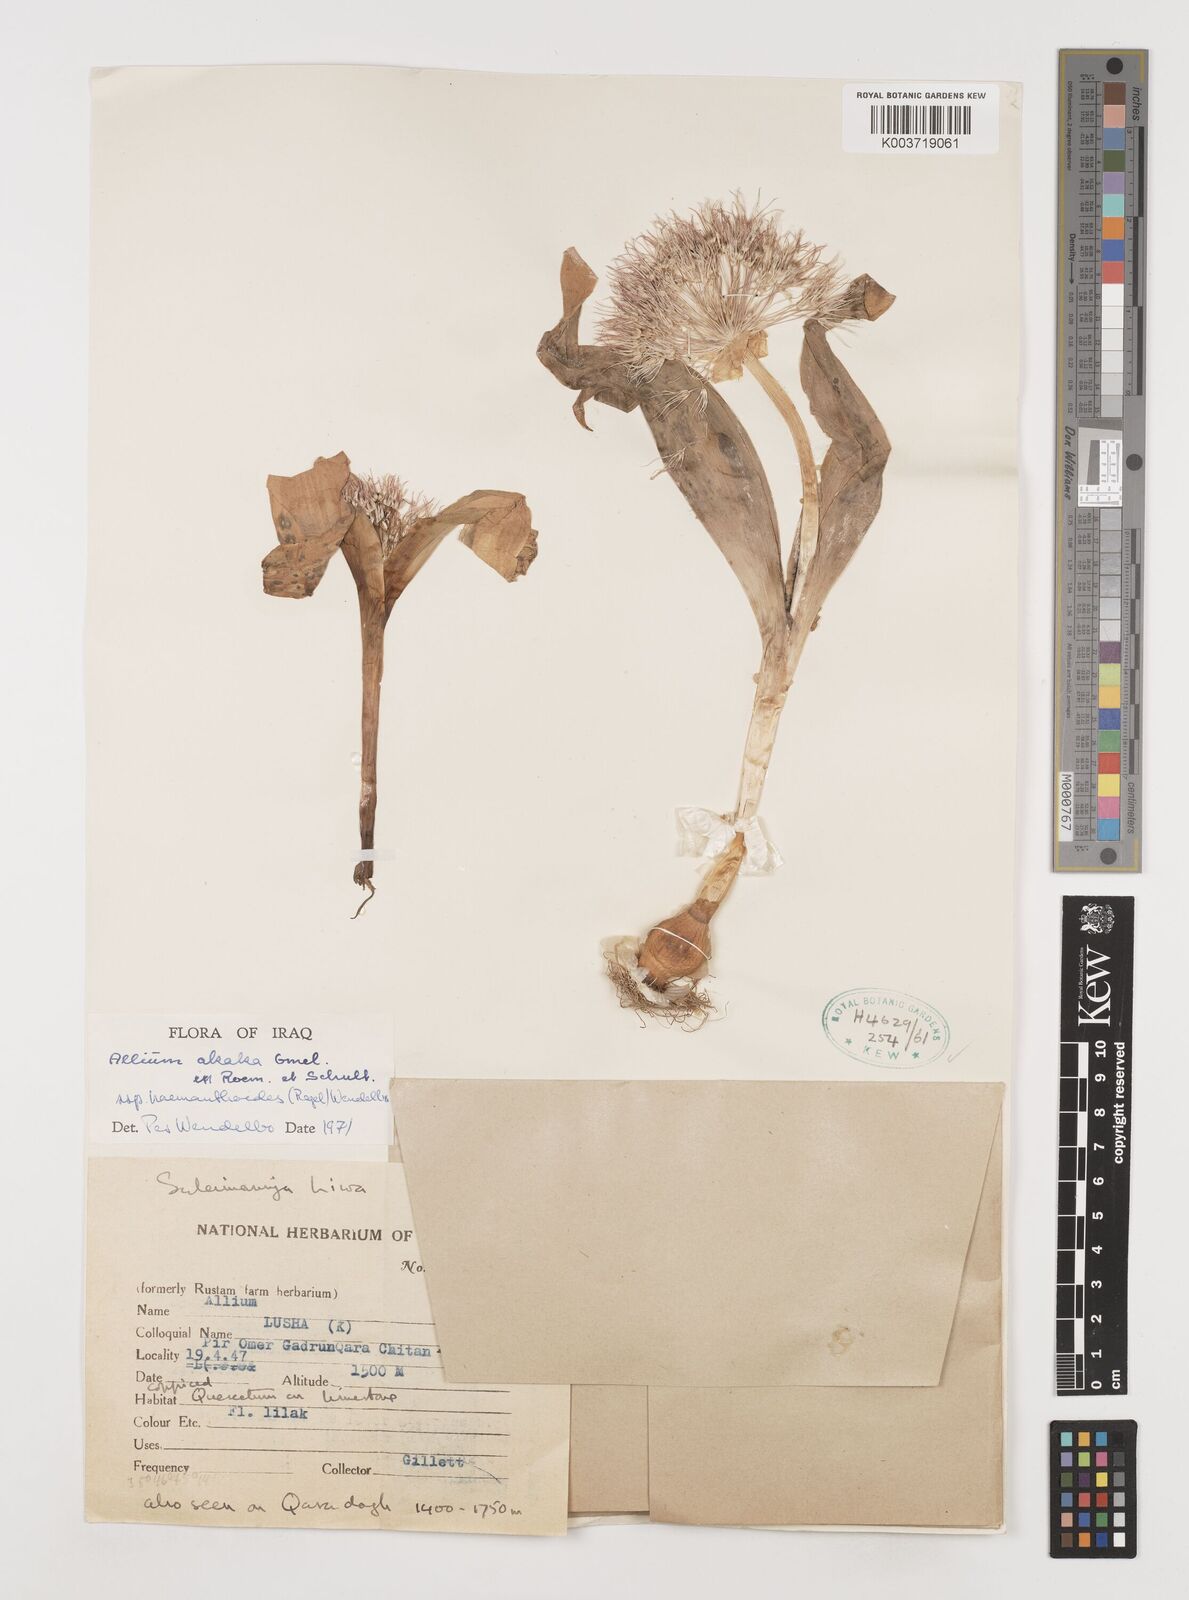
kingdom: Plantae
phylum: Tracheophyta
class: Liliopsida
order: Asparagales
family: Amaryllidaceae
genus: Allium
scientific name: Allium haemanthoides
